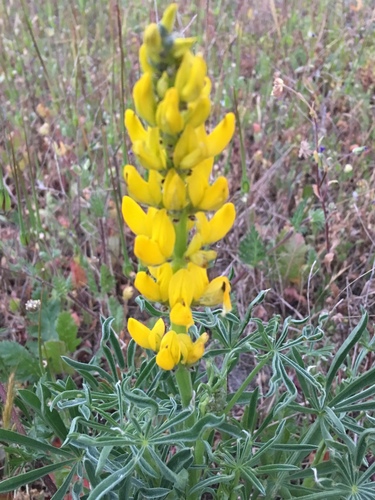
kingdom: Plantae
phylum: Tracheophyta
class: Magnoliopsida
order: Fabales
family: Fabaceae
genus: Lupinus
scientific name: Lupinus luteus
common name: European yellow lupine
